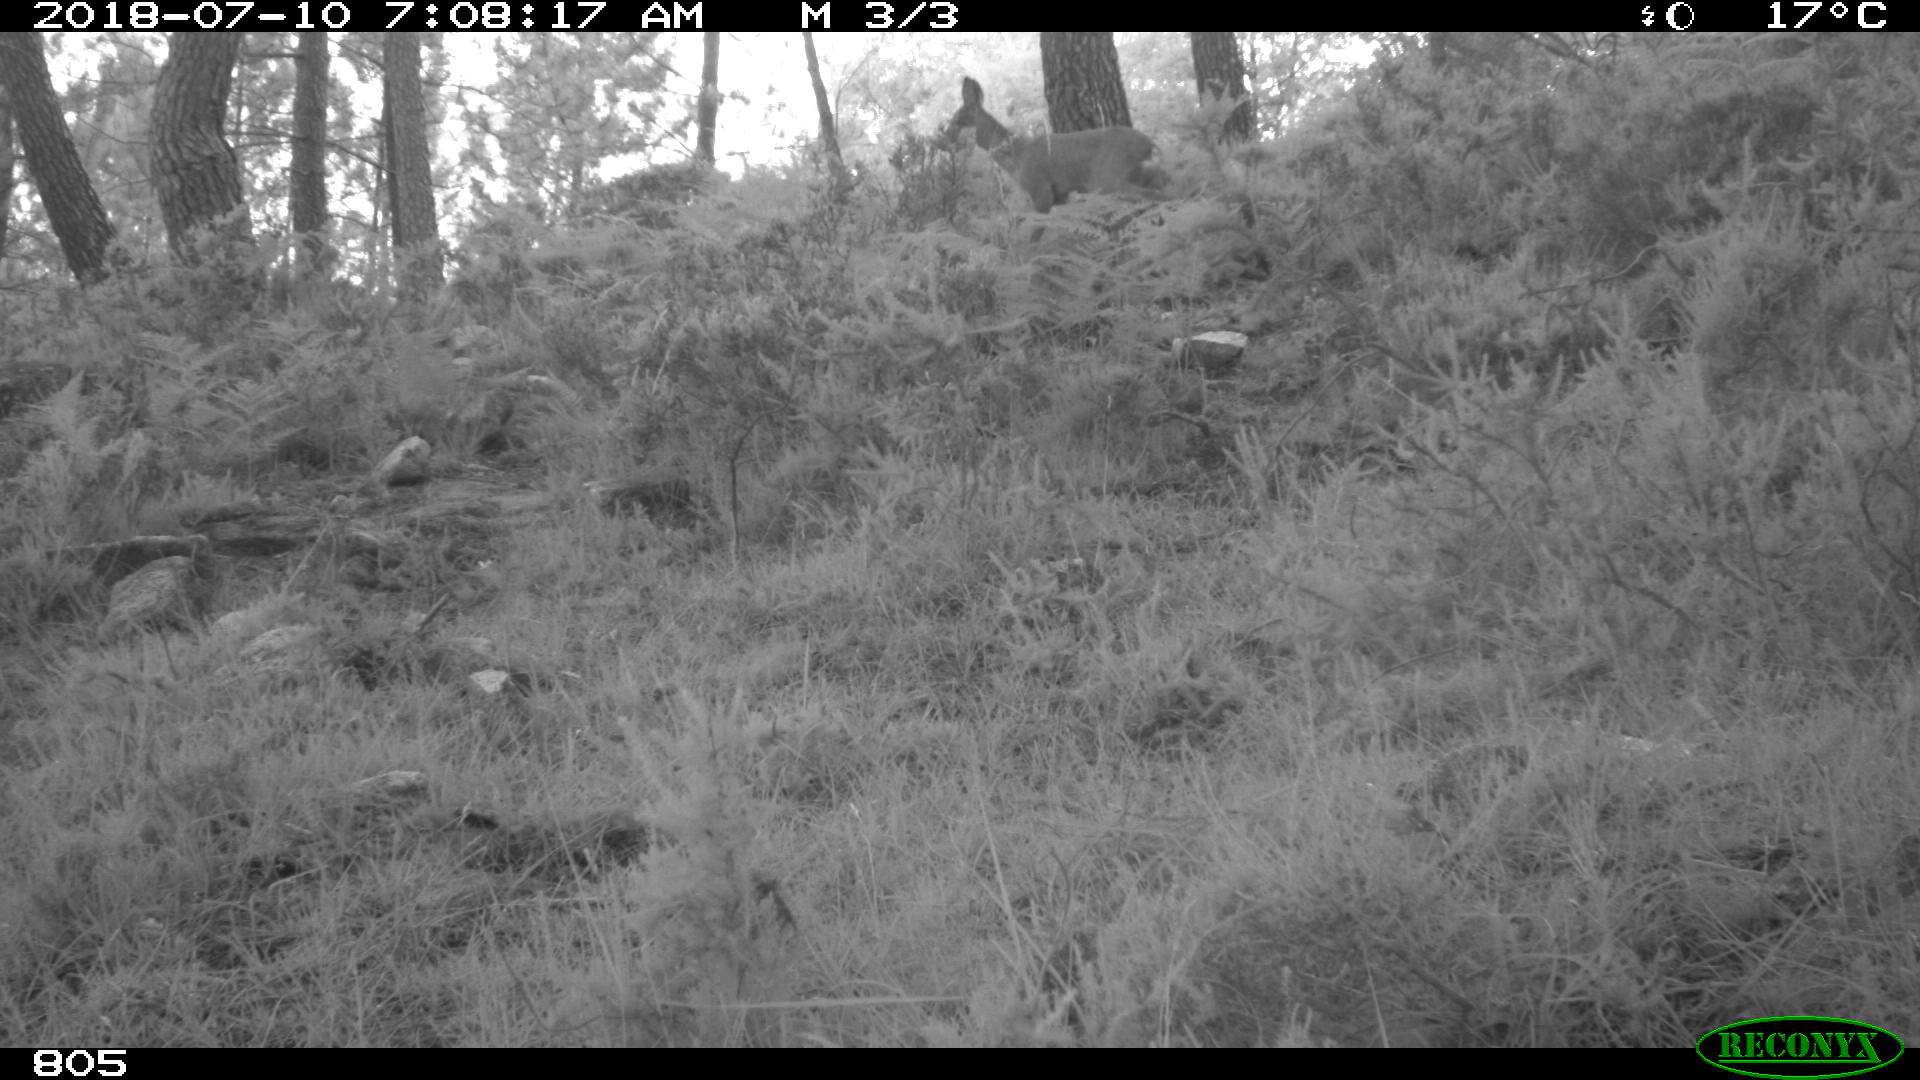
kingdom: Animalia
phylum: Chordata
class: Mammalia
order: Artiodactyla
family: Cervidae
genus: Capreolus
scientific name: Capreolus capreolus
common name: Western roe deer
